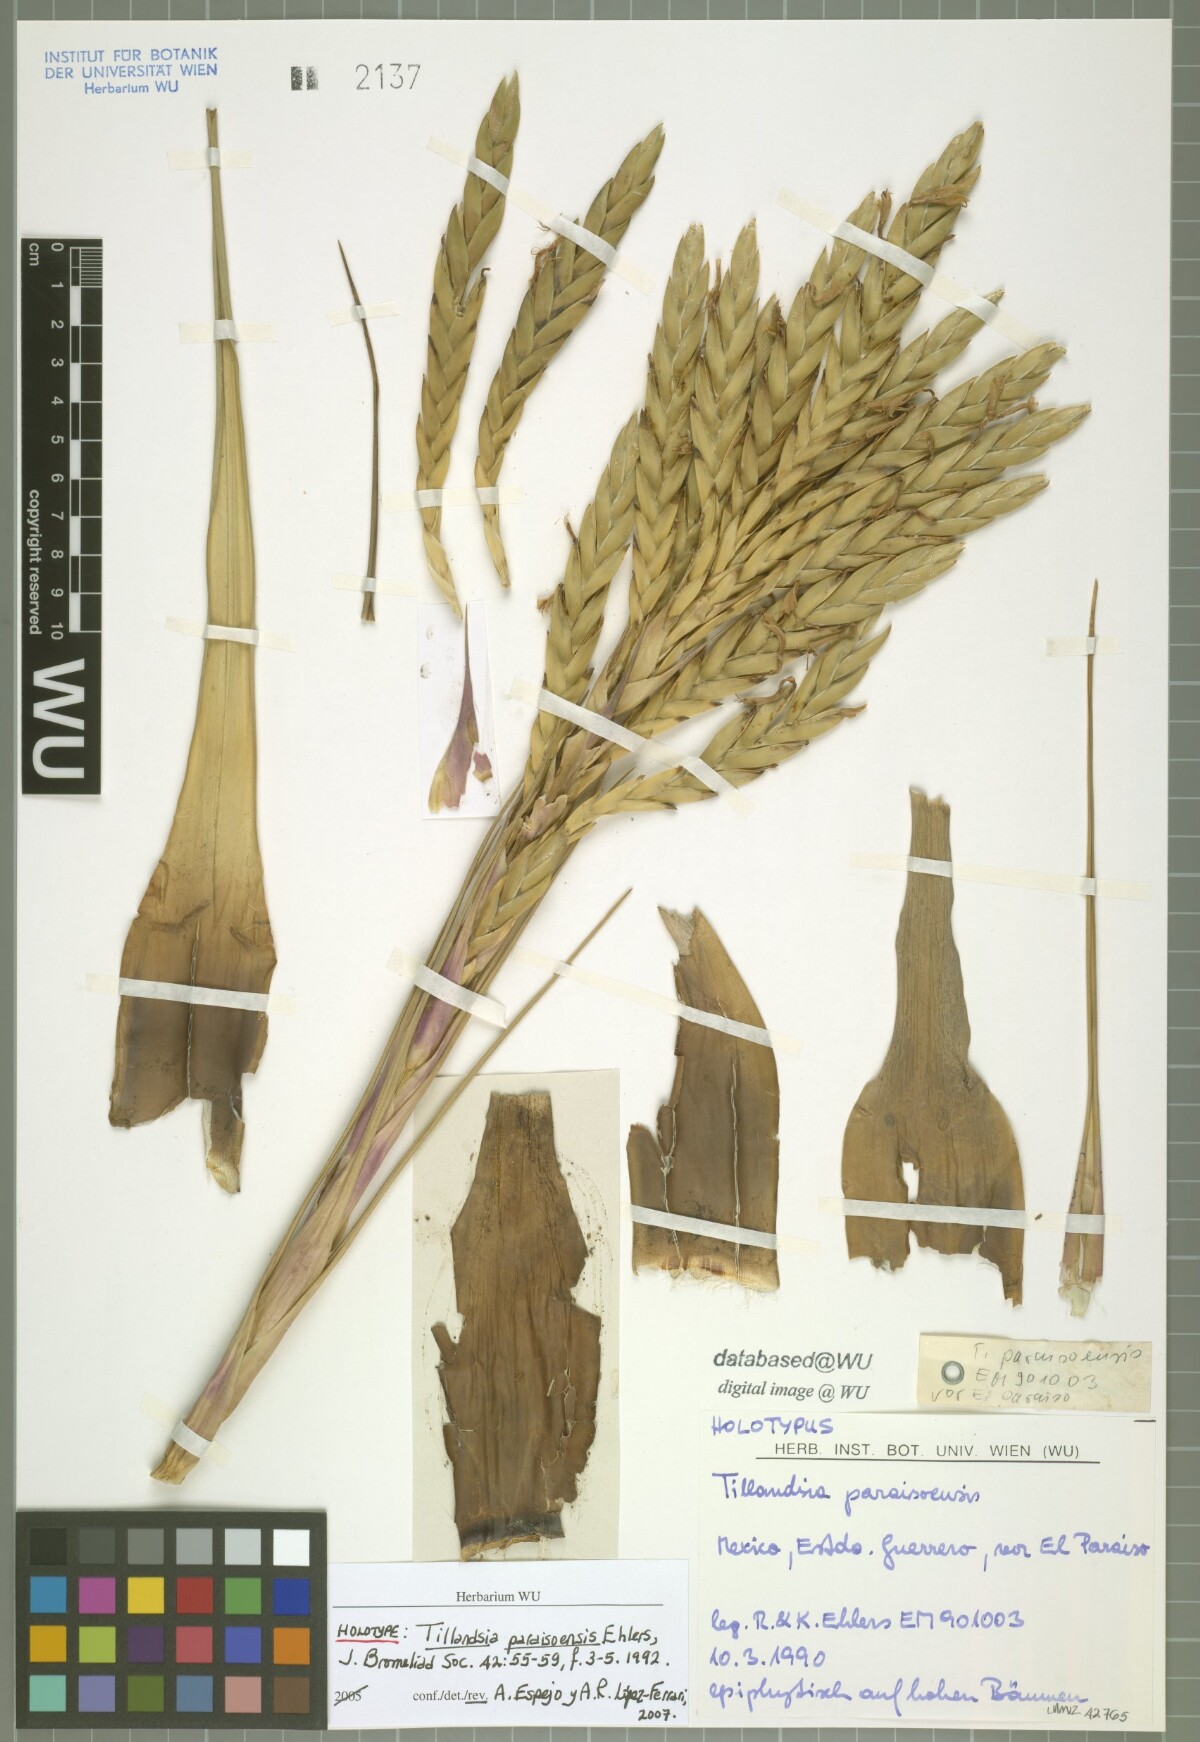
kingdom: Plantae
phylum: Tracheophyta
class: Liliopsida
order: Poales
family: Bromeliaceae
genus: Tillandsia
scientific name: Tillandsia paraisoensis
